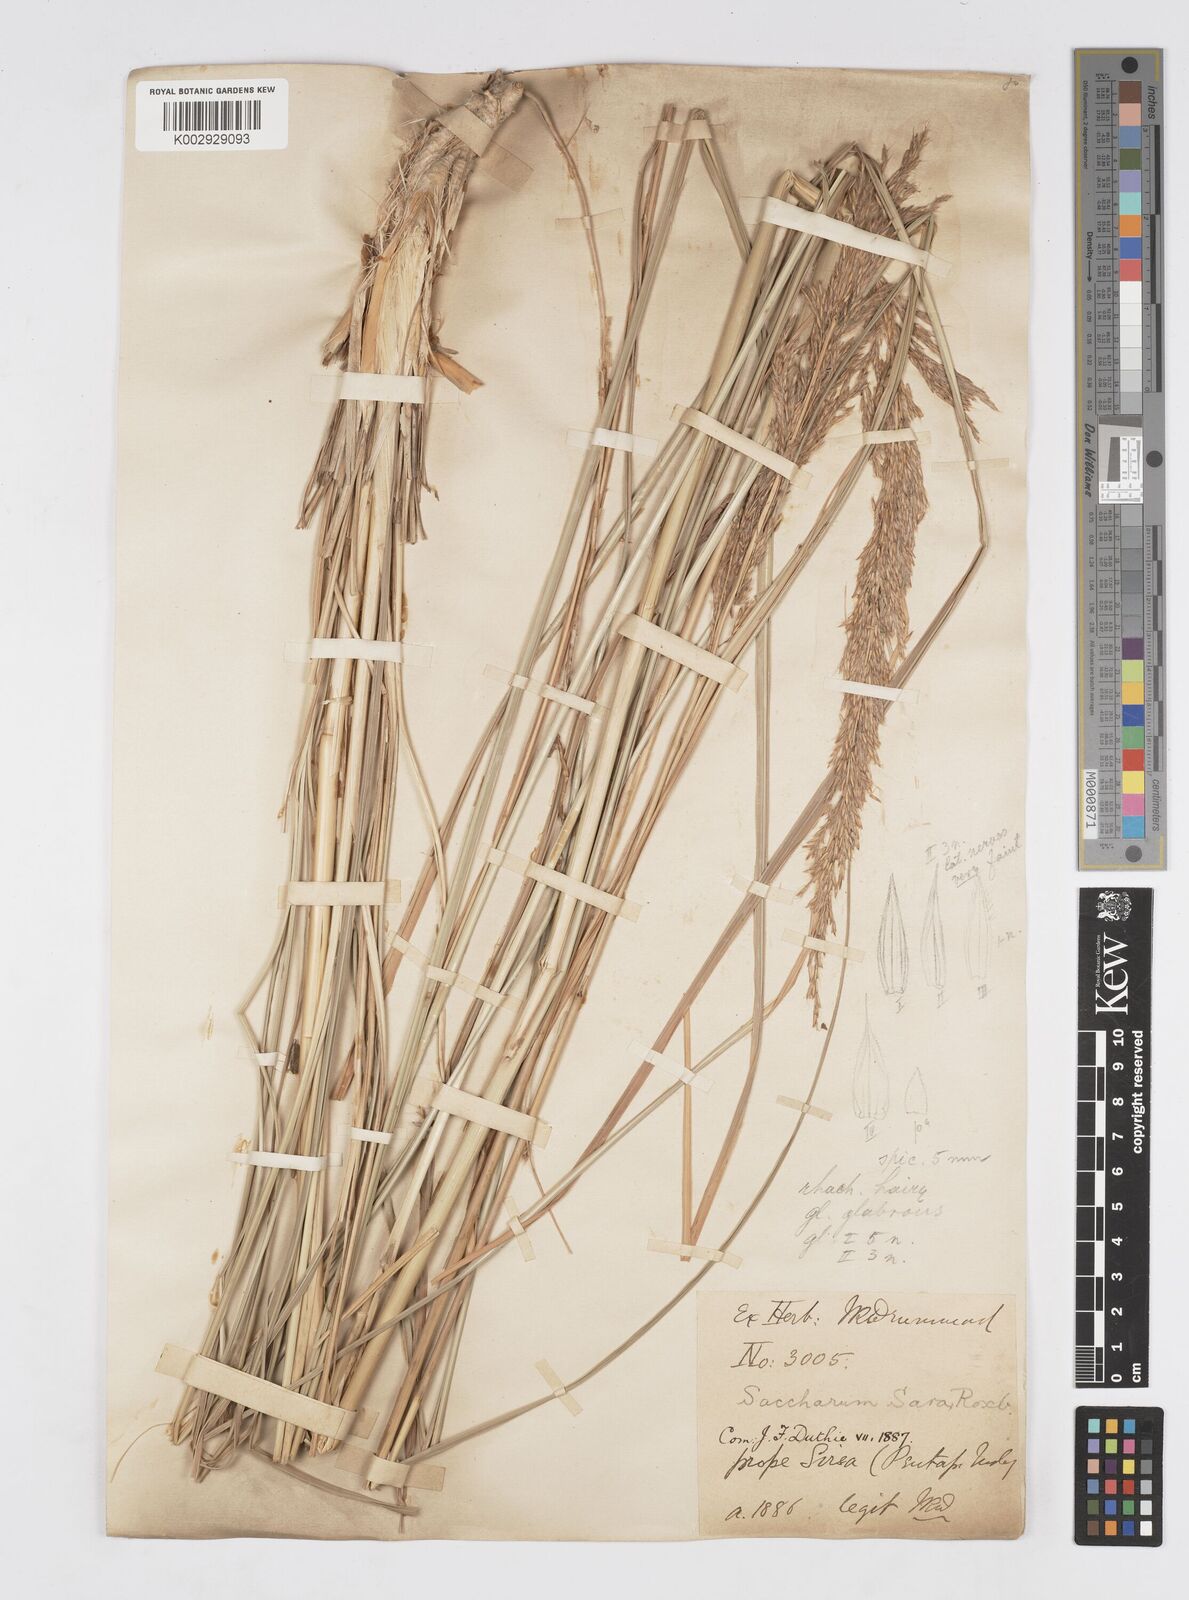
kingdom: Plantae
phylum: Tracheophyta
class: Liliopsida
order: Poales
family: Poaceae
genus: Tripidium
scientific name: Tripidium bengalense
